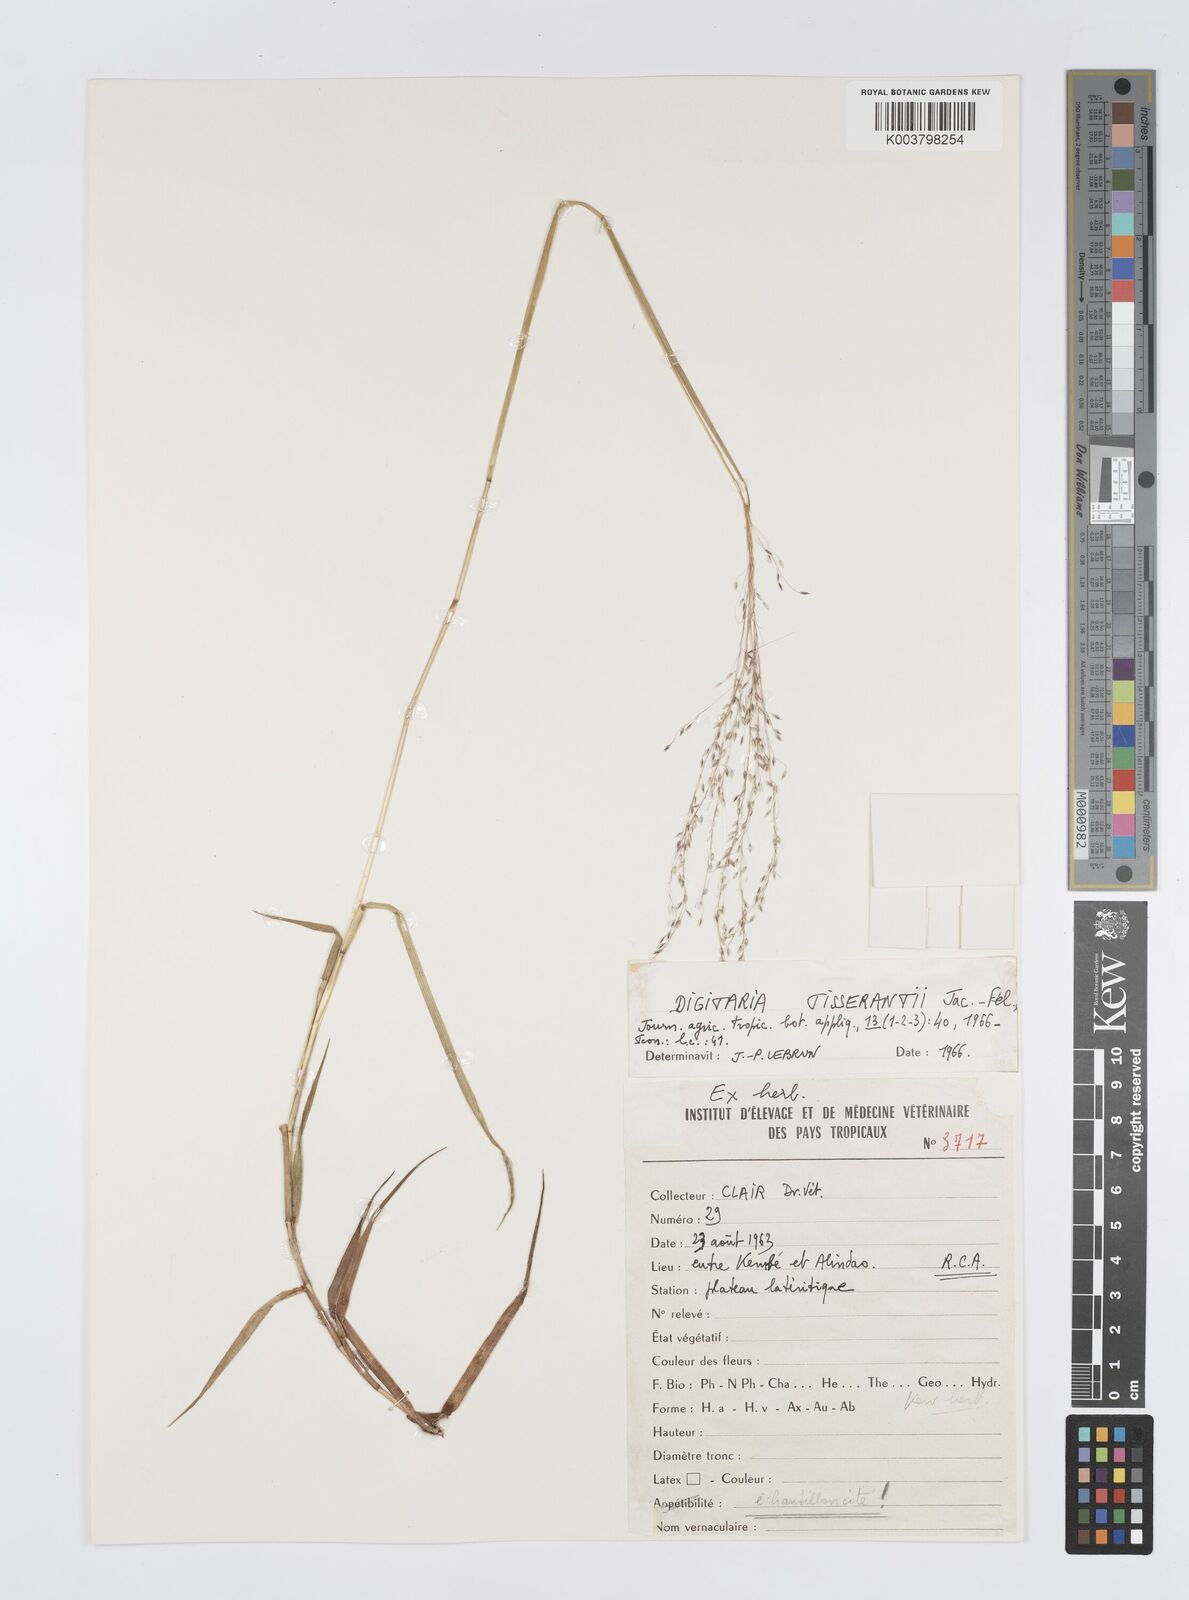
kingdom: Plantae
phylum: Tracheophyta
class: Liliopsida
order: Poales
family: Poaceae
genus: Digitaria
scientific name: Digitaria tisserantii
